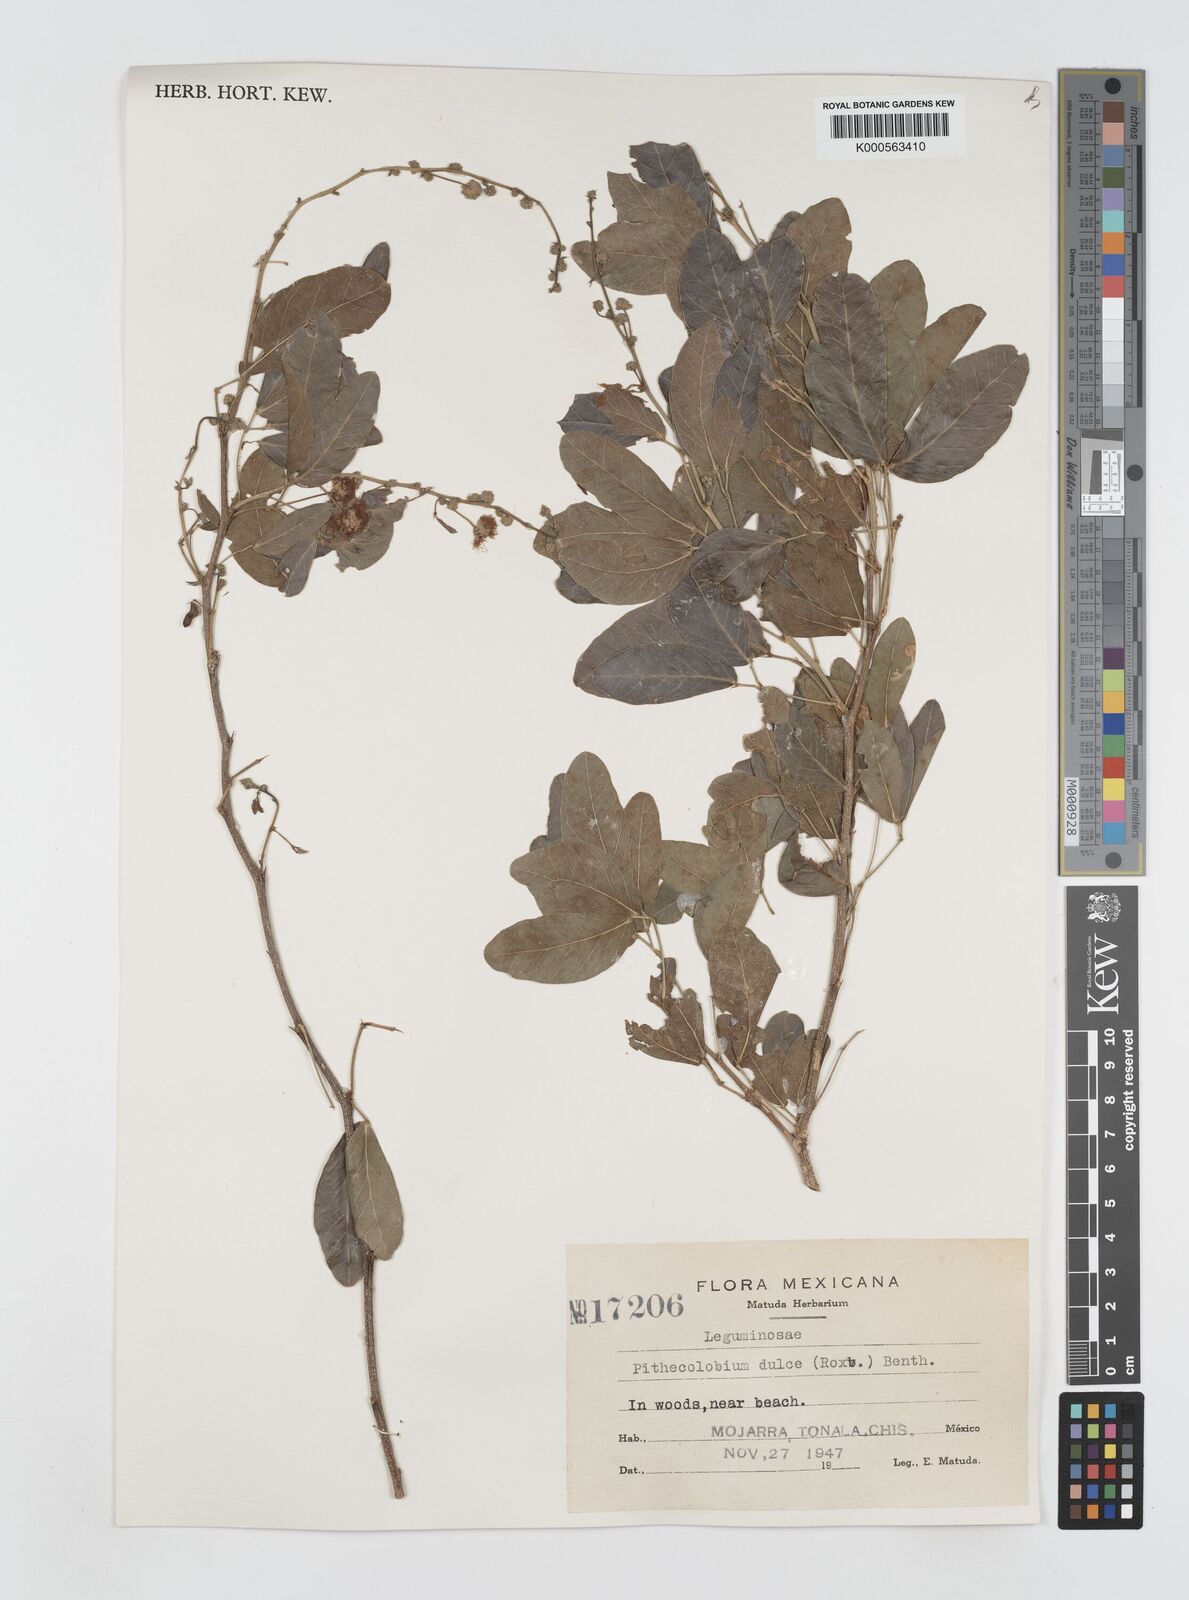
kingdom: Plantae
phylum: Tracheophyta
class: Magnoliopsida
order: Fabales
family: Fabaceae
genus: Pithecellobium
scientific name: Pithecellobium dulce
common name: Monkeypod
